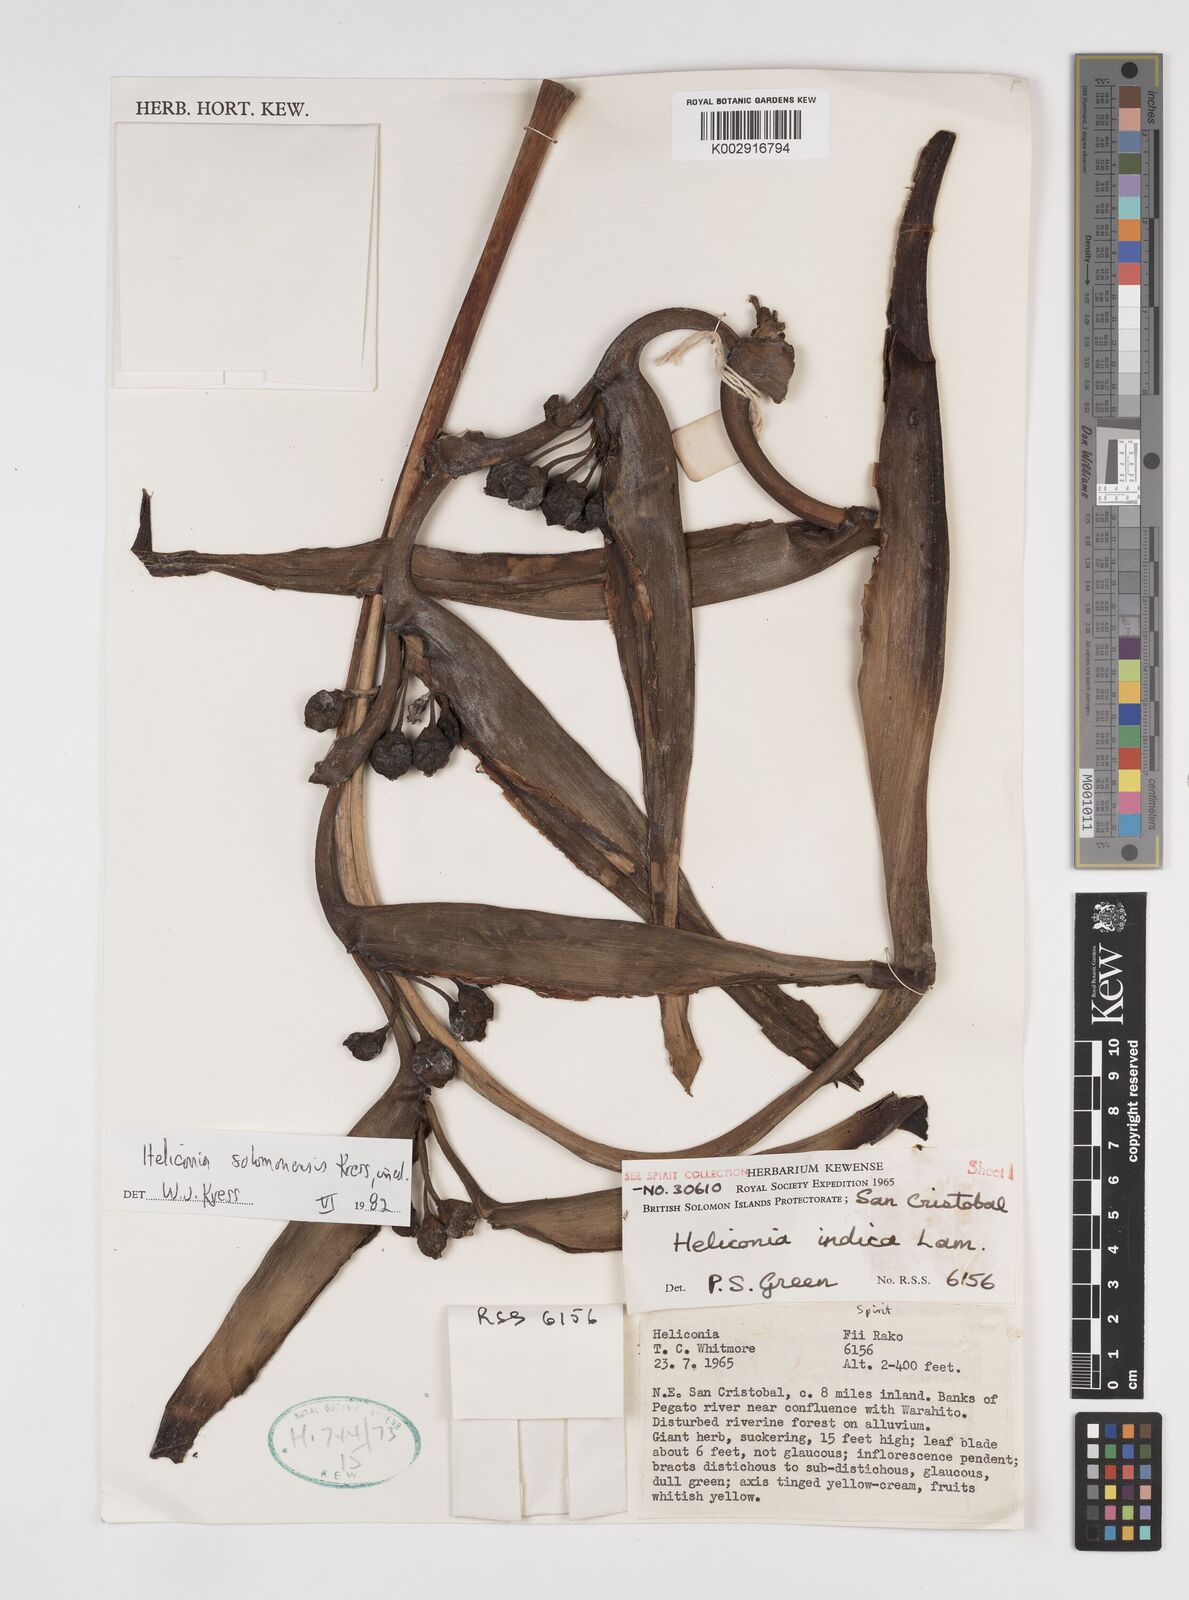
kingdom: Plantae
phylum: Tracheophyta
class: Liliopsida
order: Zingiberales
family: Heliconiaceae
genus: Heliconia
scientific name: Heliconia solomonensis
